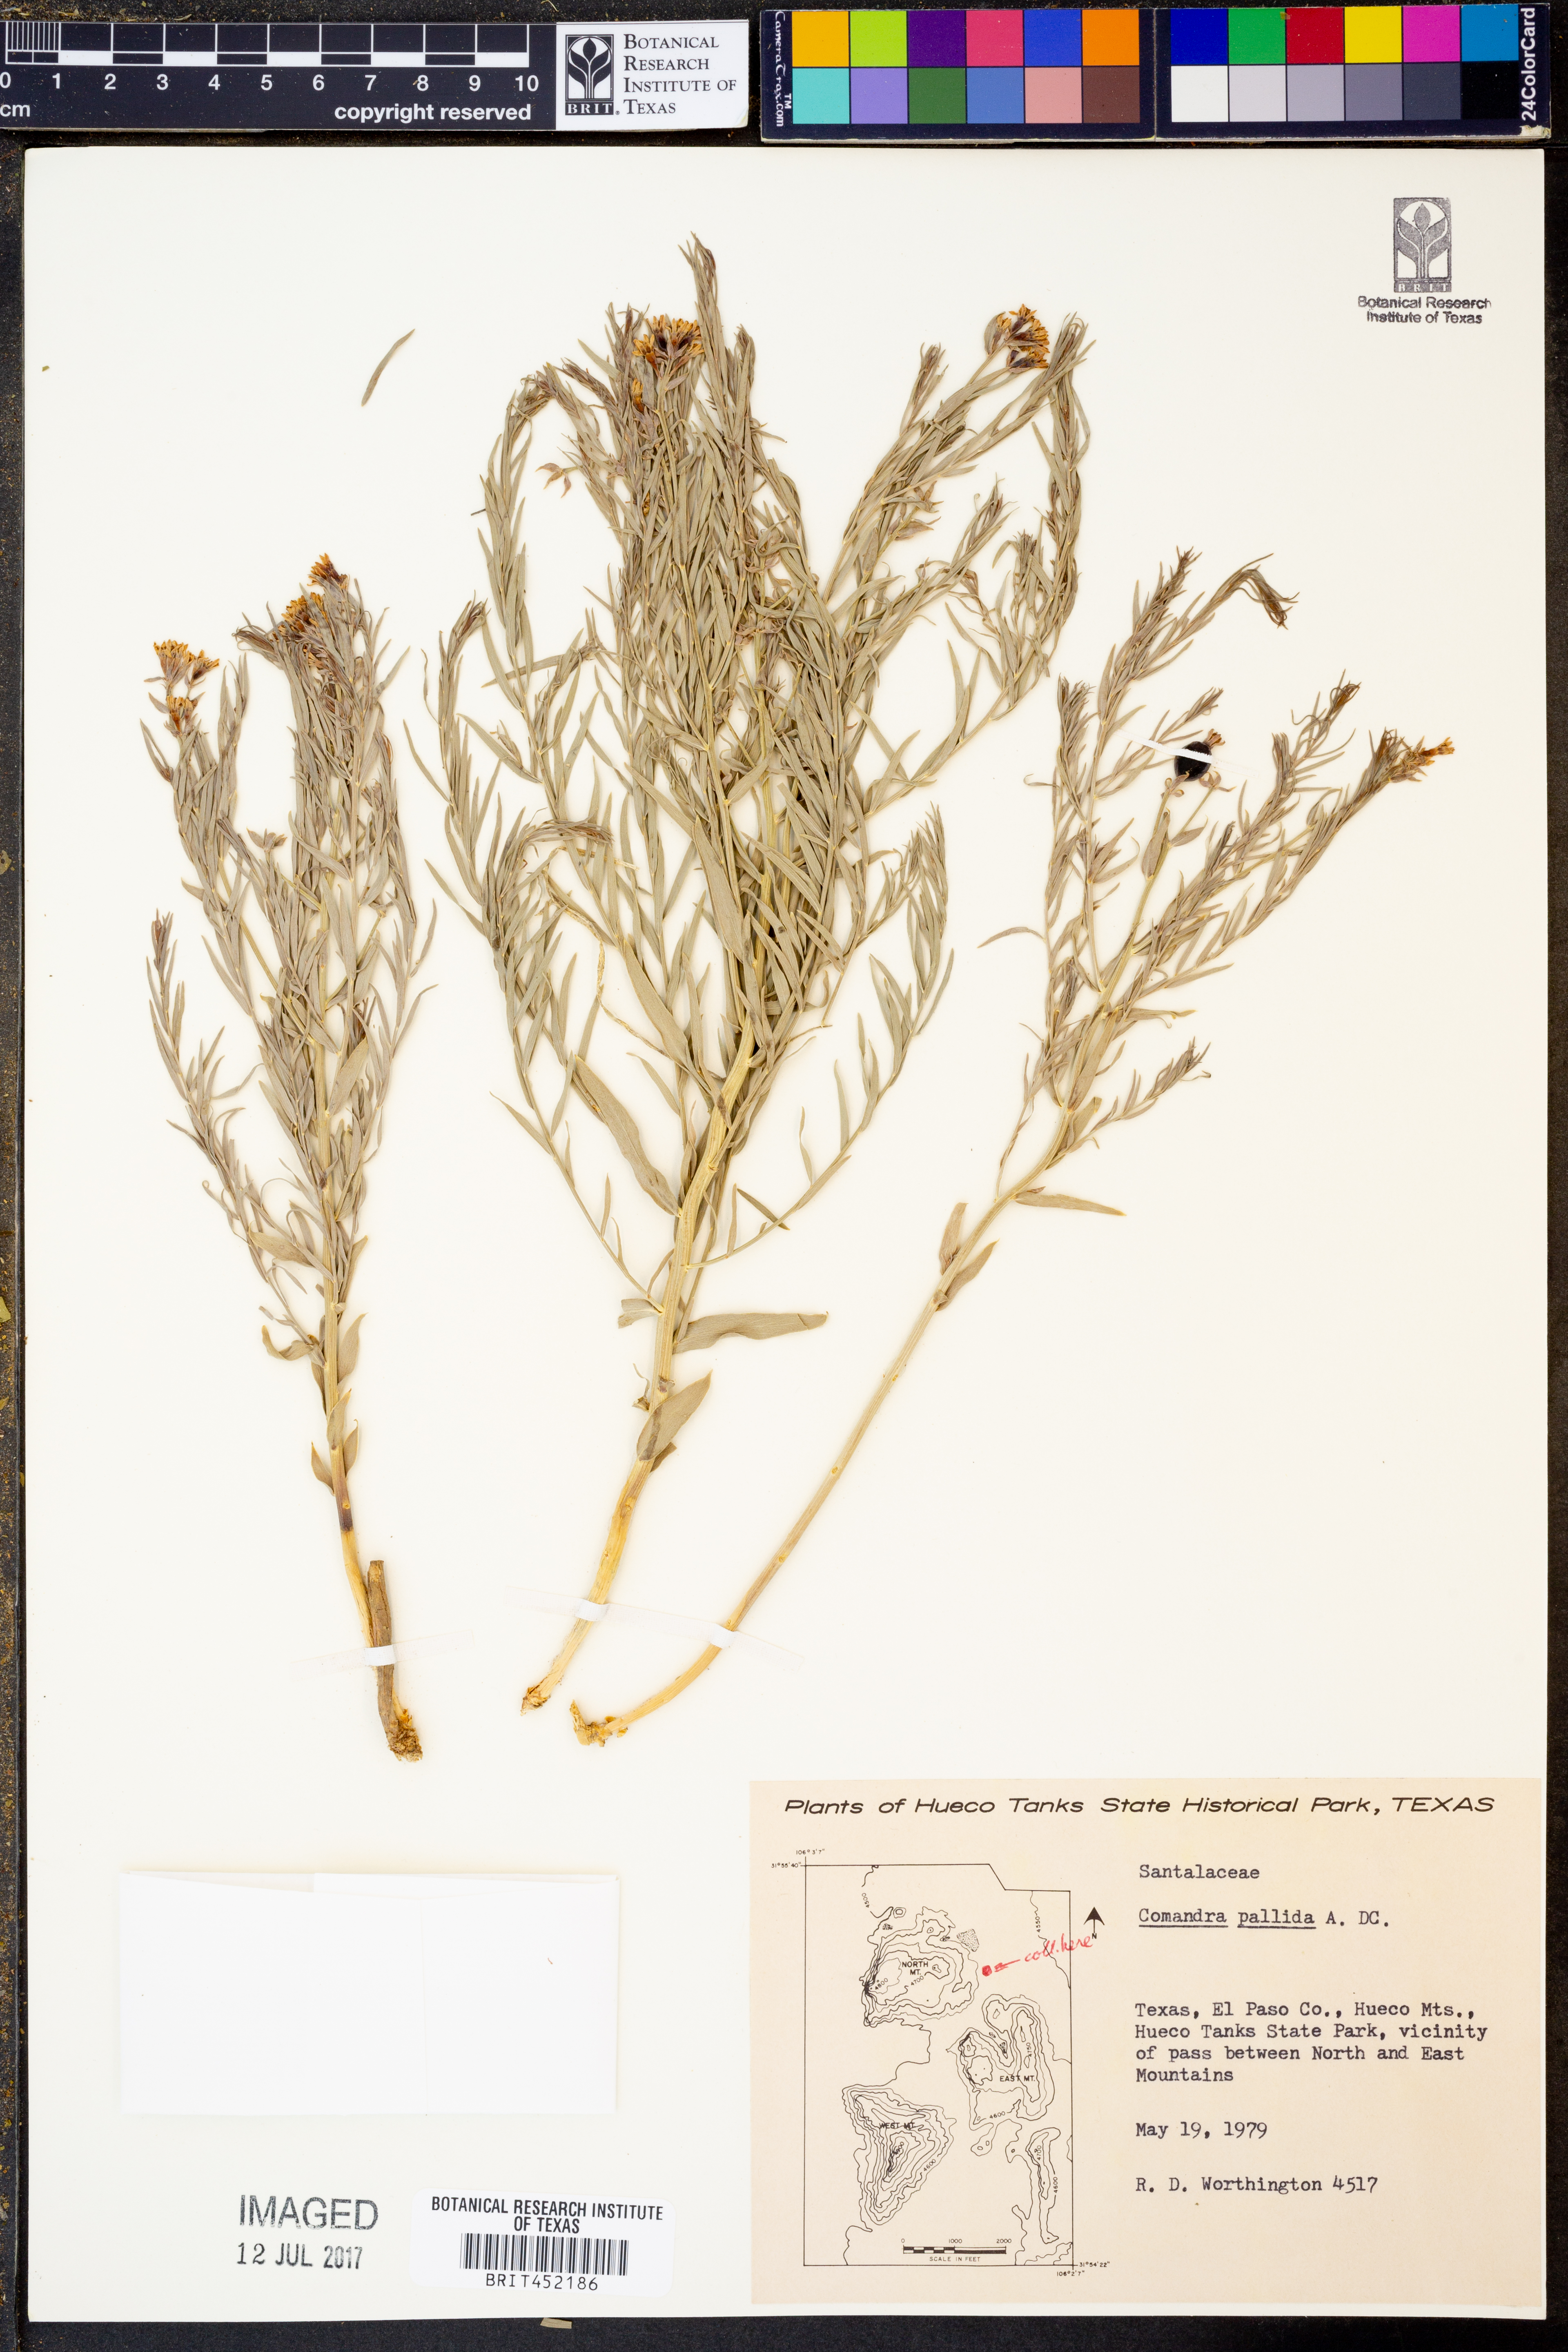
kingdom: Plantae
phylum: Tracheophyta
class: Magnoliopsida
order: Santalales
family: Comandraceae
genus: Comandra
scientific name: Comandra umbellata
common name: Bastard toadflax
